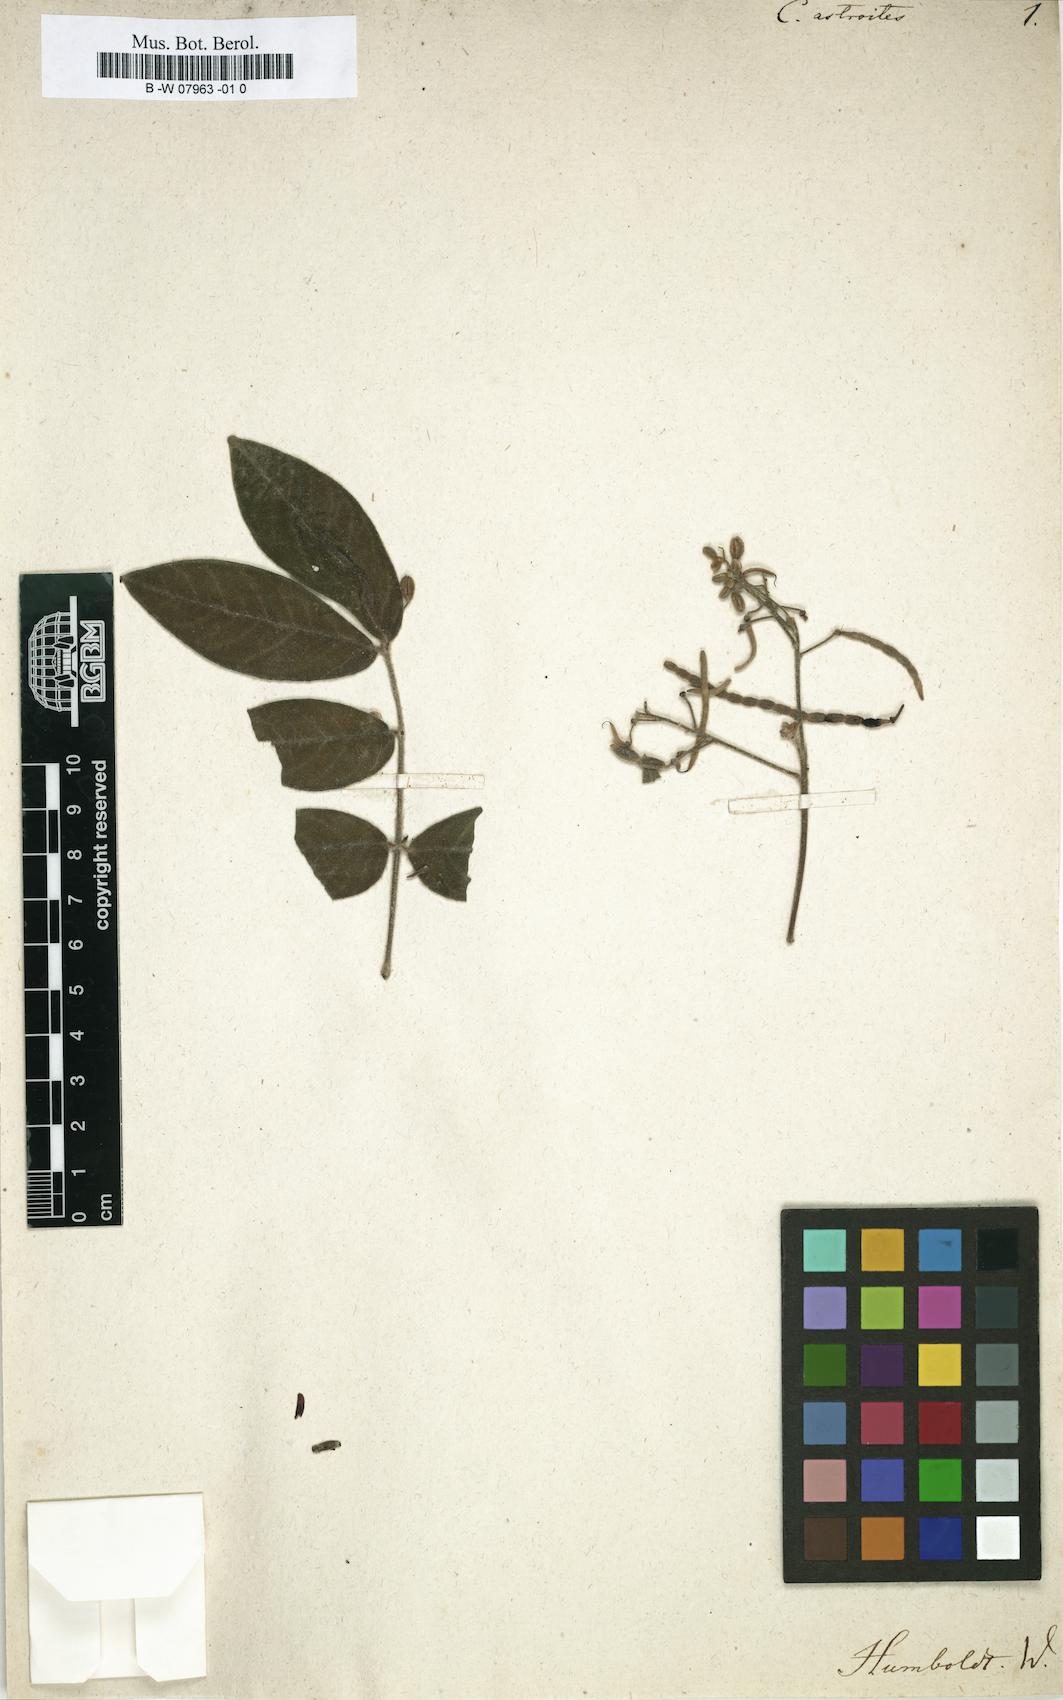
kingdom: Plantae
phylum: Tracheophyta
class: Magnoliopsida
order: Fabales
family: Fabaceae
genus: Senna
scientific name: Senna villosa
